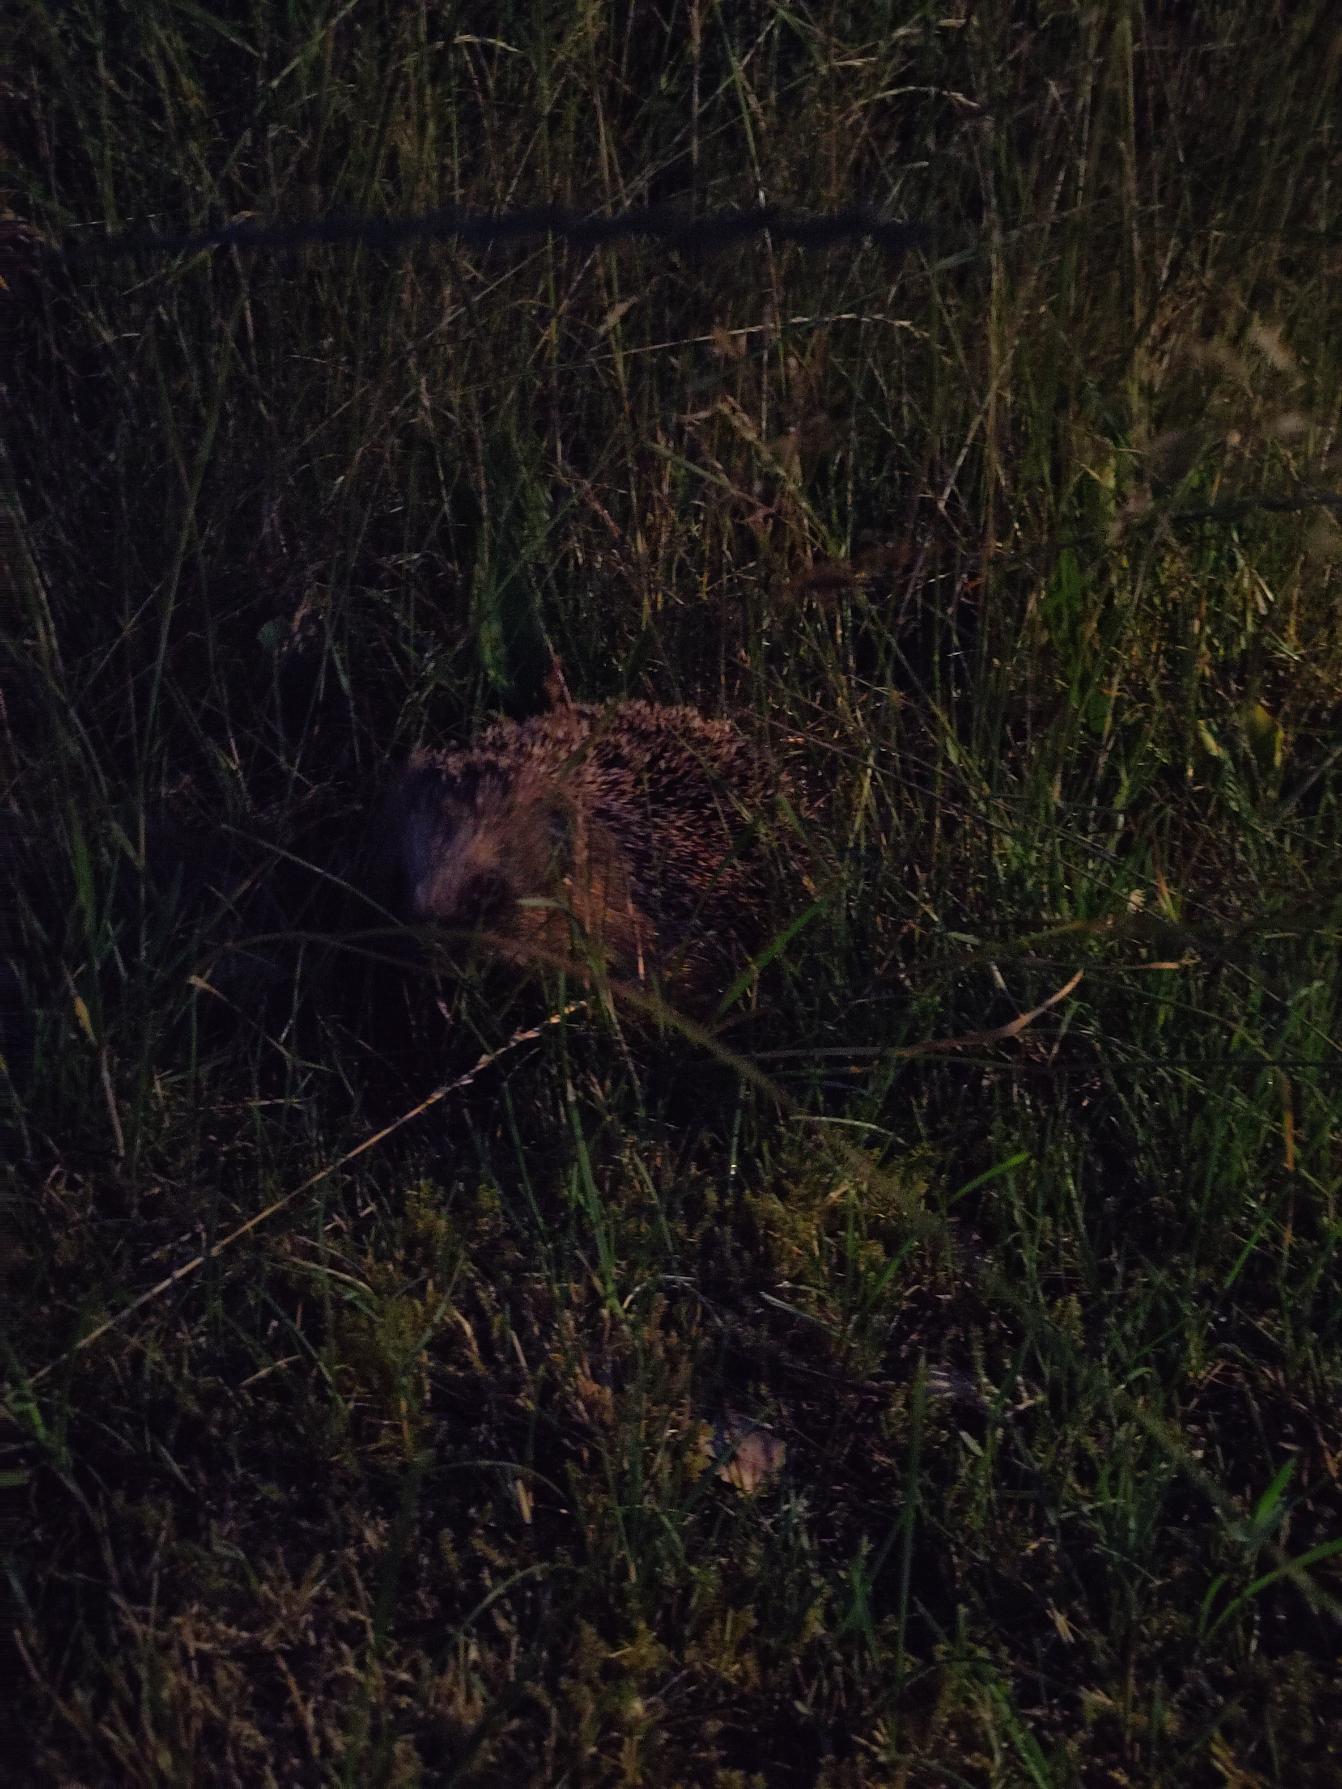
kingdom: Animalia
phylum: Chordata
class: Mammalia
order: Erinaceomorpha
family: Erinaceidae
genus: Erinaceus
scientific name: Erinaceus europaeus
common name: Pindsvin
